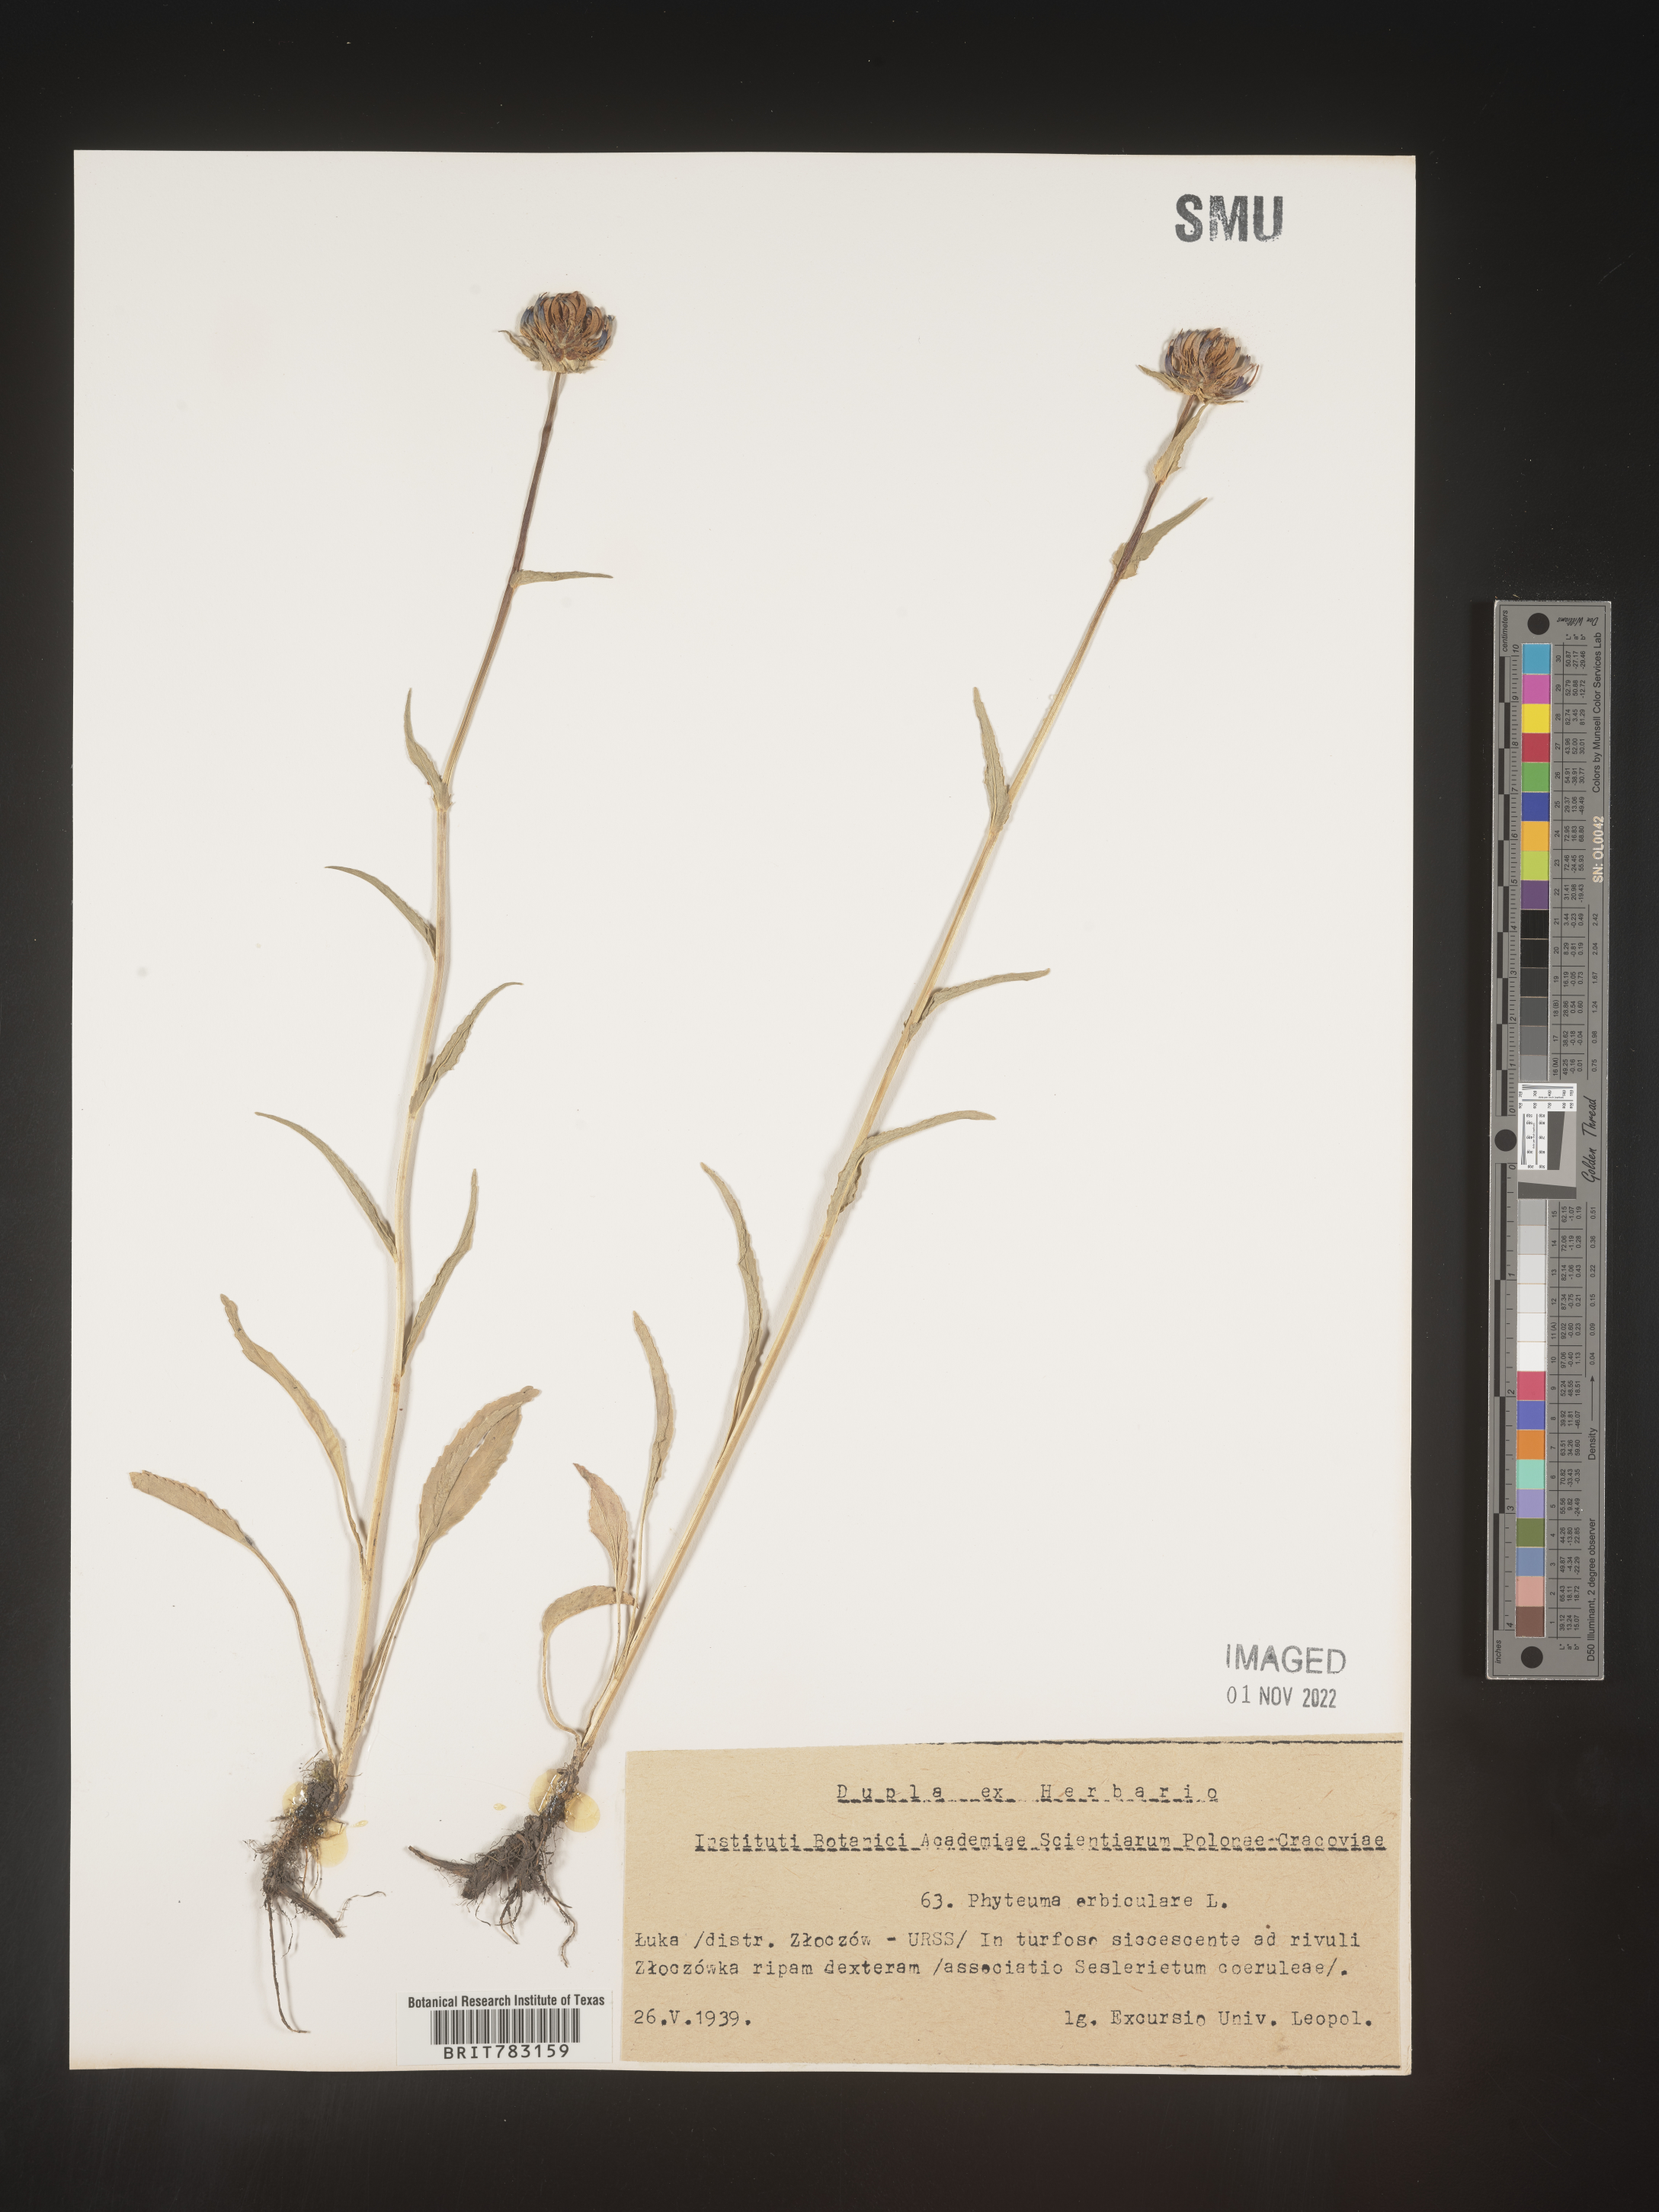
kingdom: Plantae
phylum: Tracheophyta
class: Magnoliopsida
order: Asterales
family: Campanulaceae
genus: Phyteuma
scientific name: Phyteuma
